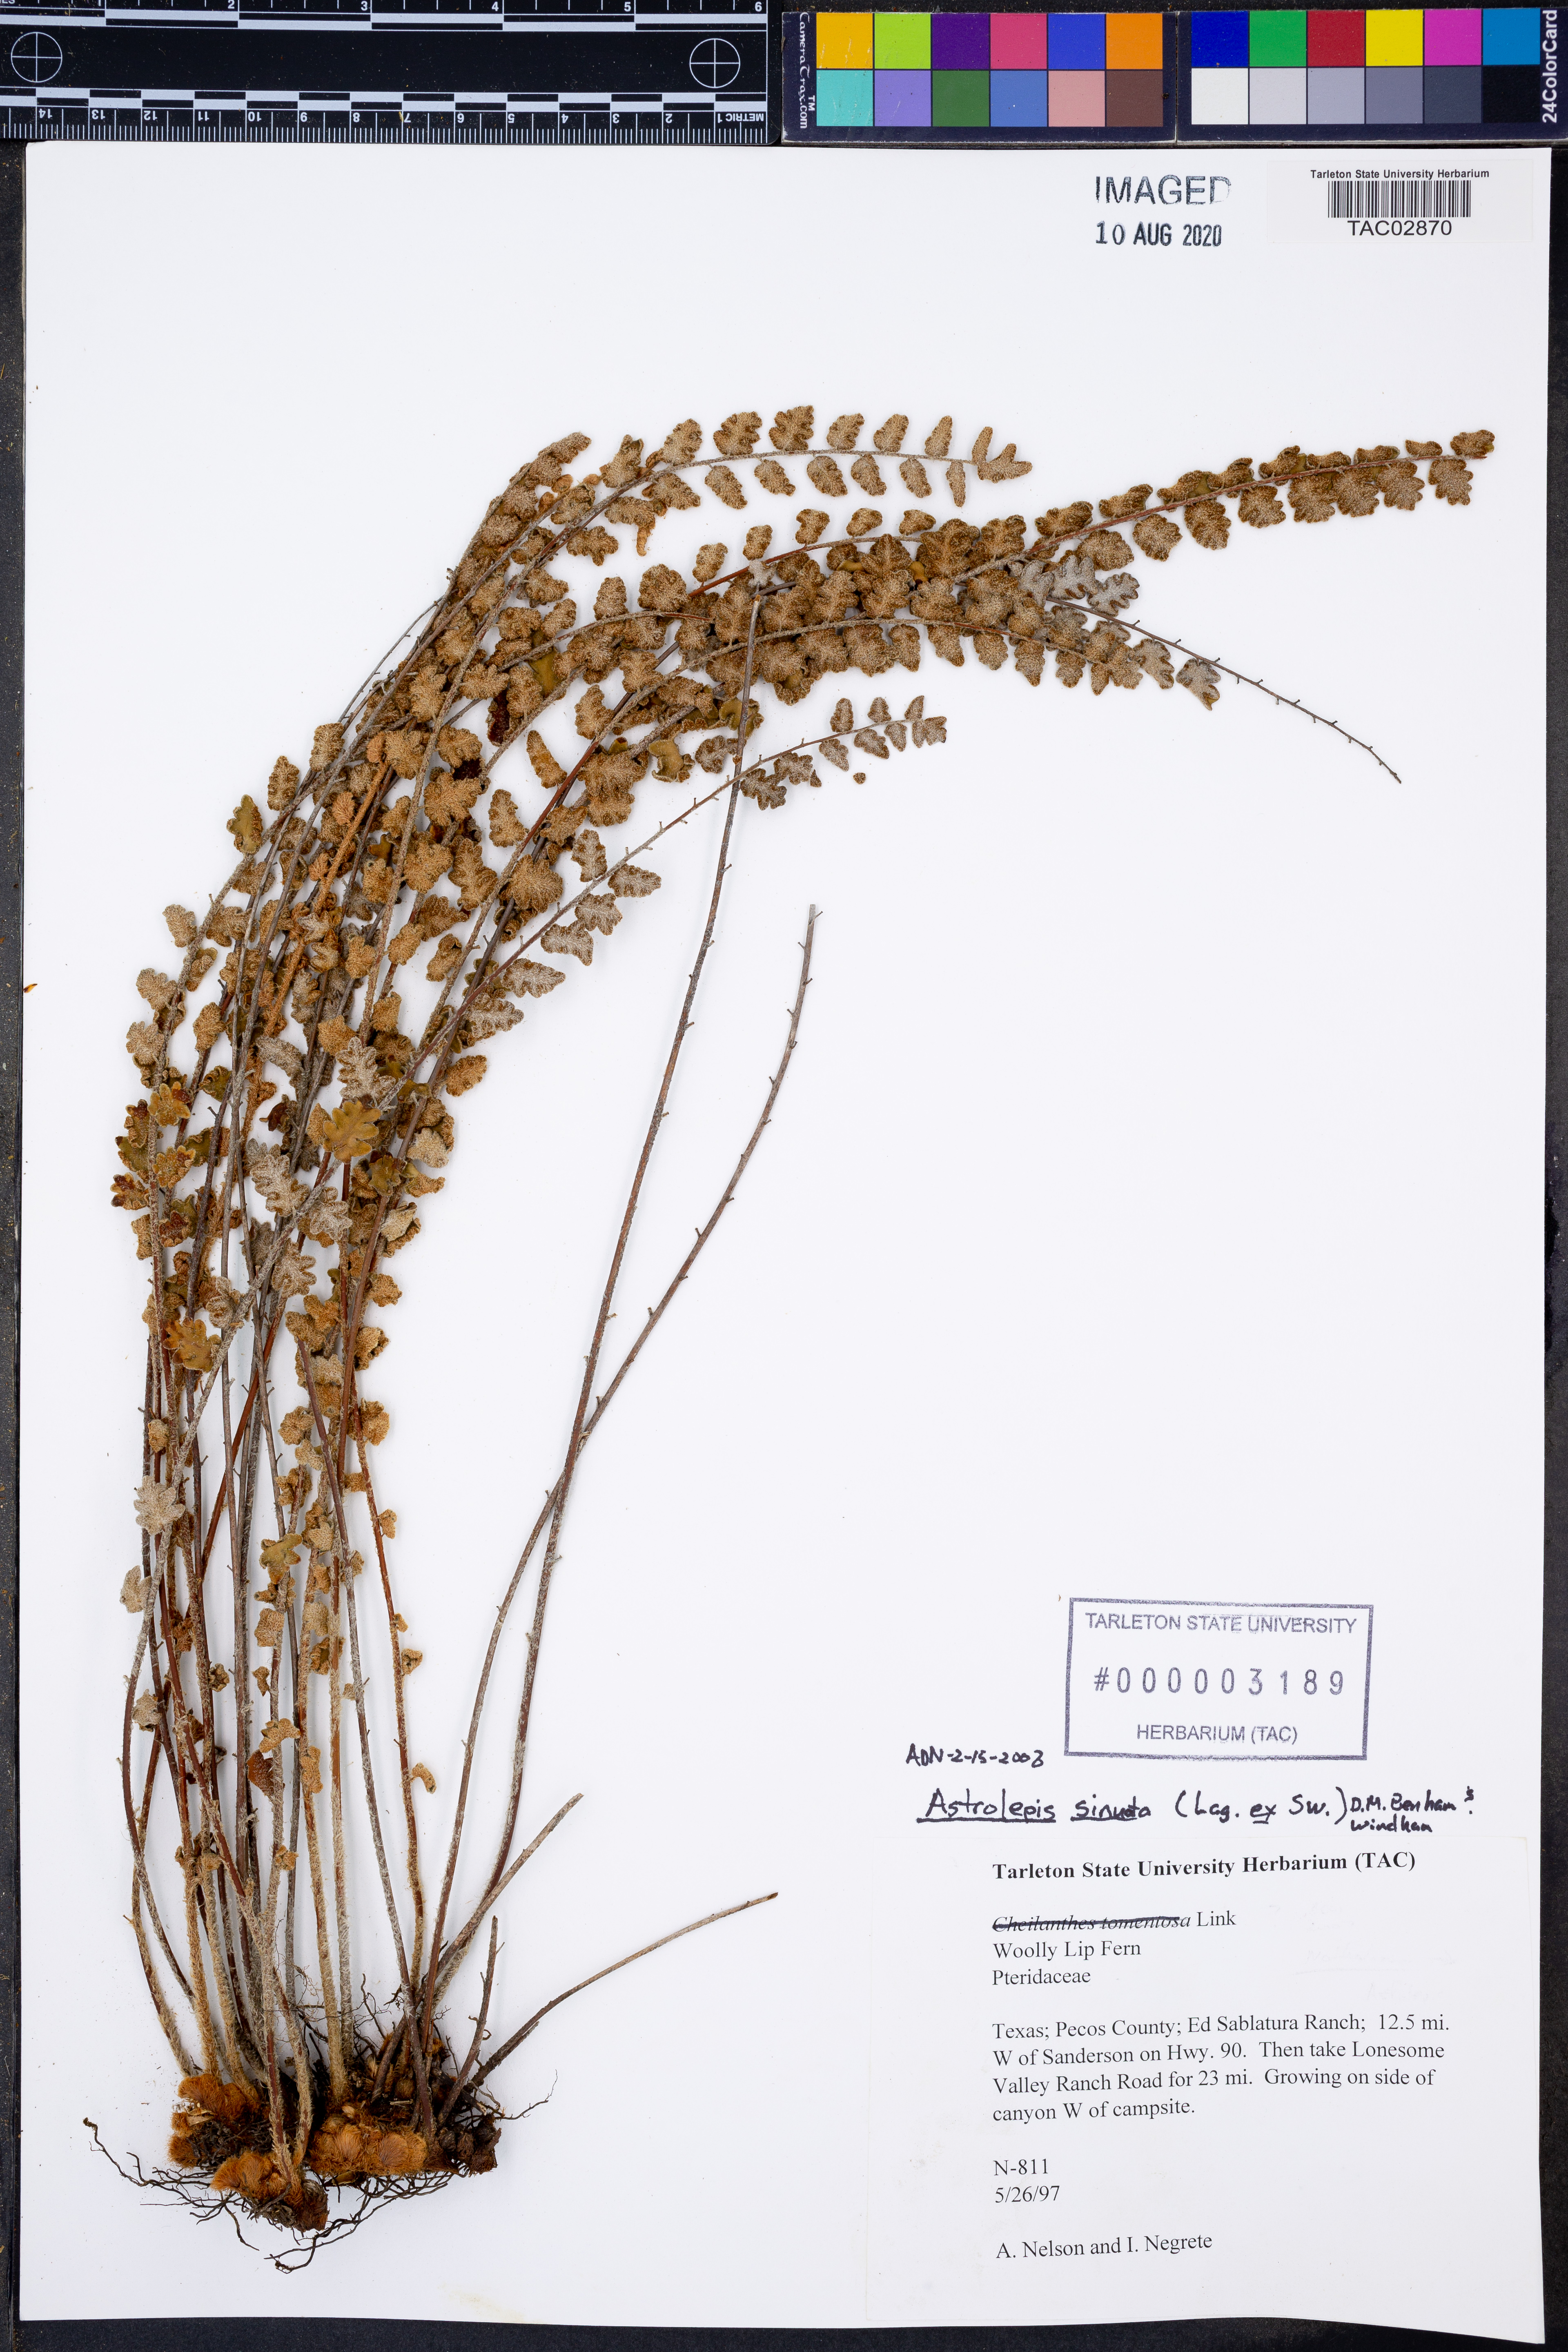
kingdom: Plantae
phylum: Tracheophyta
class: Polypodiopsida
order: Polypodiales
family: Pteridaceae
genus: Astrolepis
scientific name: Astrolepis sinuata
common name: Wavy scaly cloakfern
